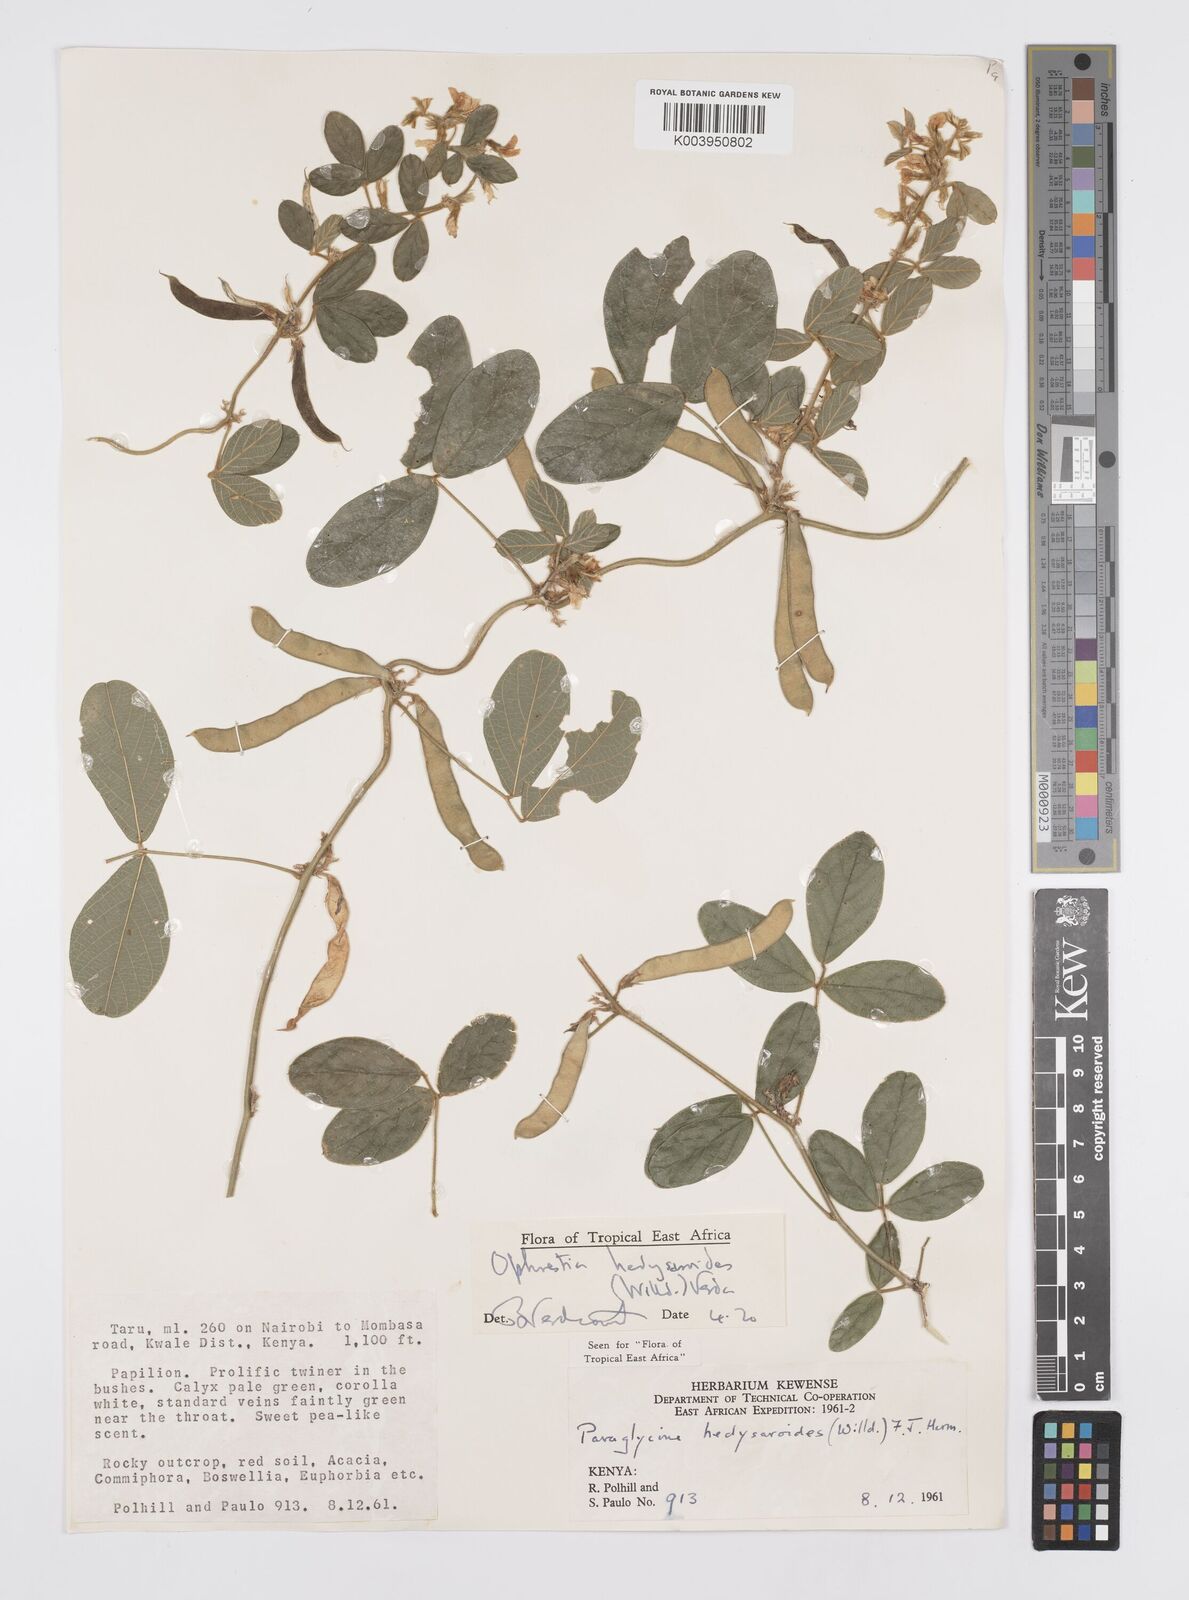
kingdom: Plantae
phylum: Tracheophyta
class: Magnoliopsida
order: Fabales
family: Fabaceae
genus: Ophrestia
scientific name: Ophrestia hedysaroides
